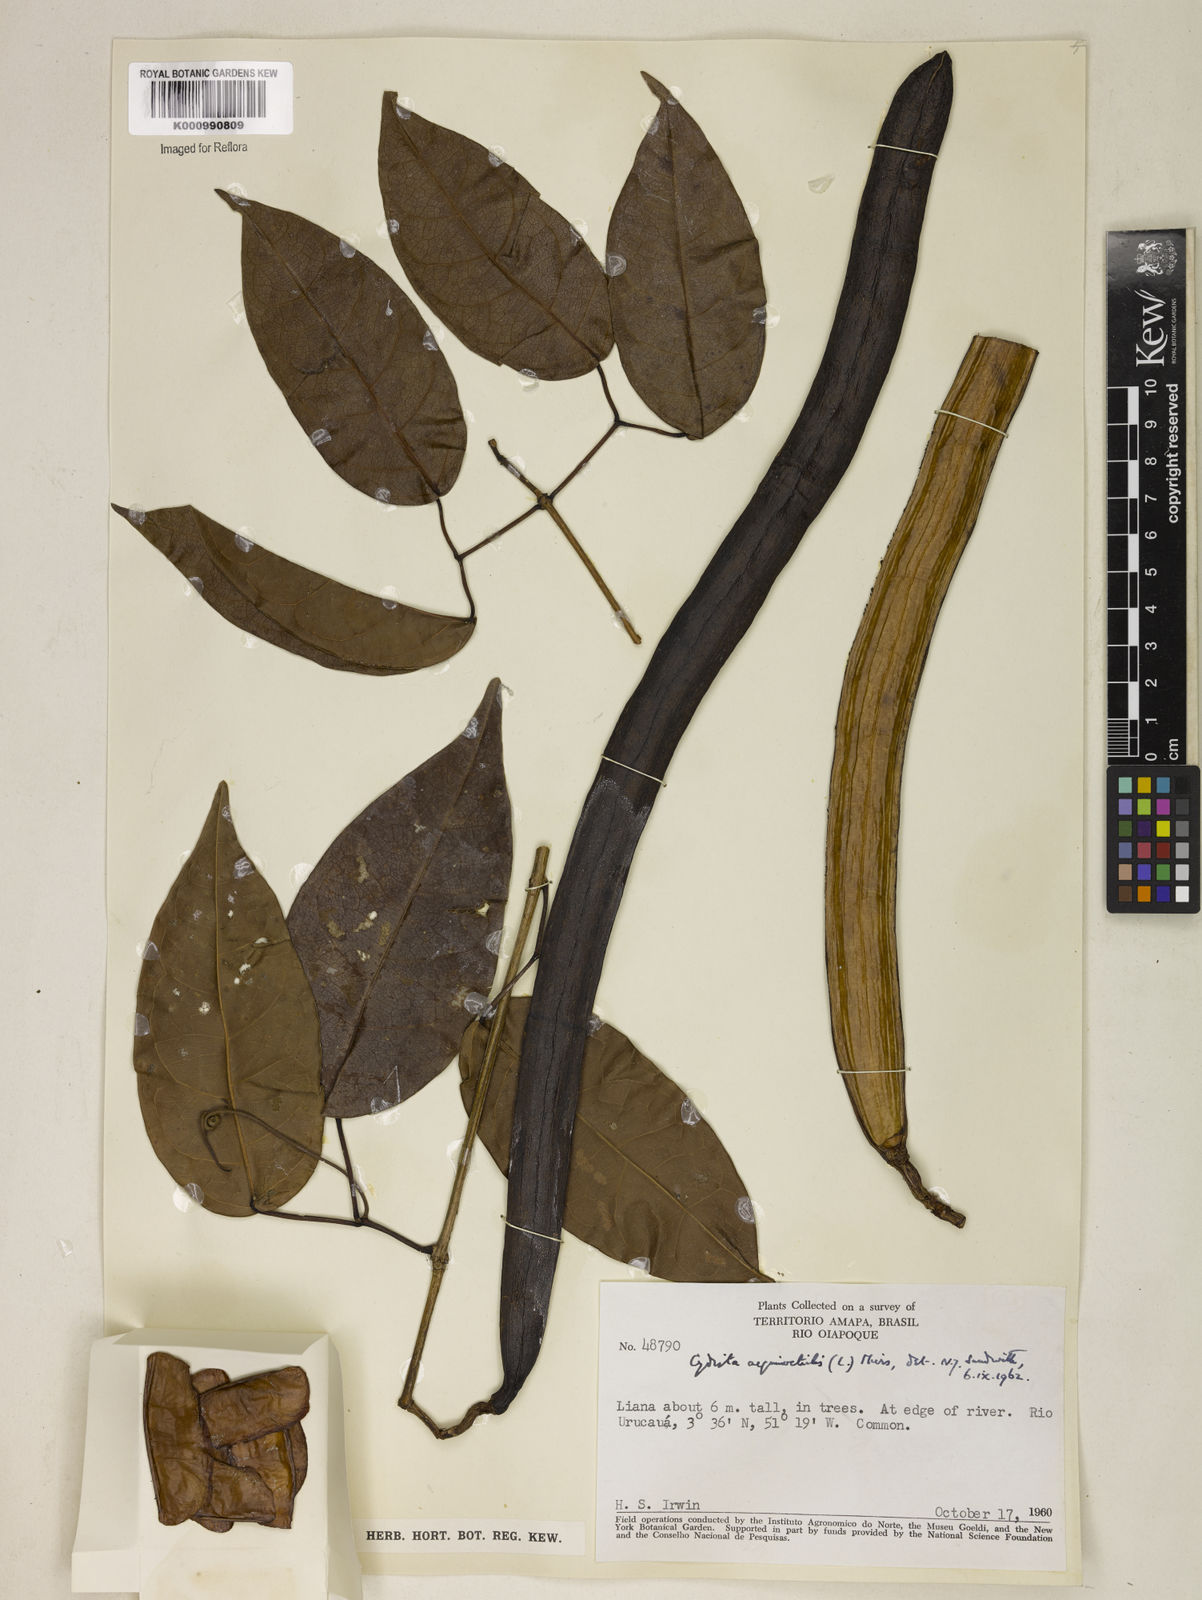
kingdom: Plantae
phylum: Tracheophyta
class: Magnoliopsida
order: Lamiales
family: Bignoniaceae
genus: Bignonia
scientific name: Bignonia aequinoctialis
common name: Garlicvine
